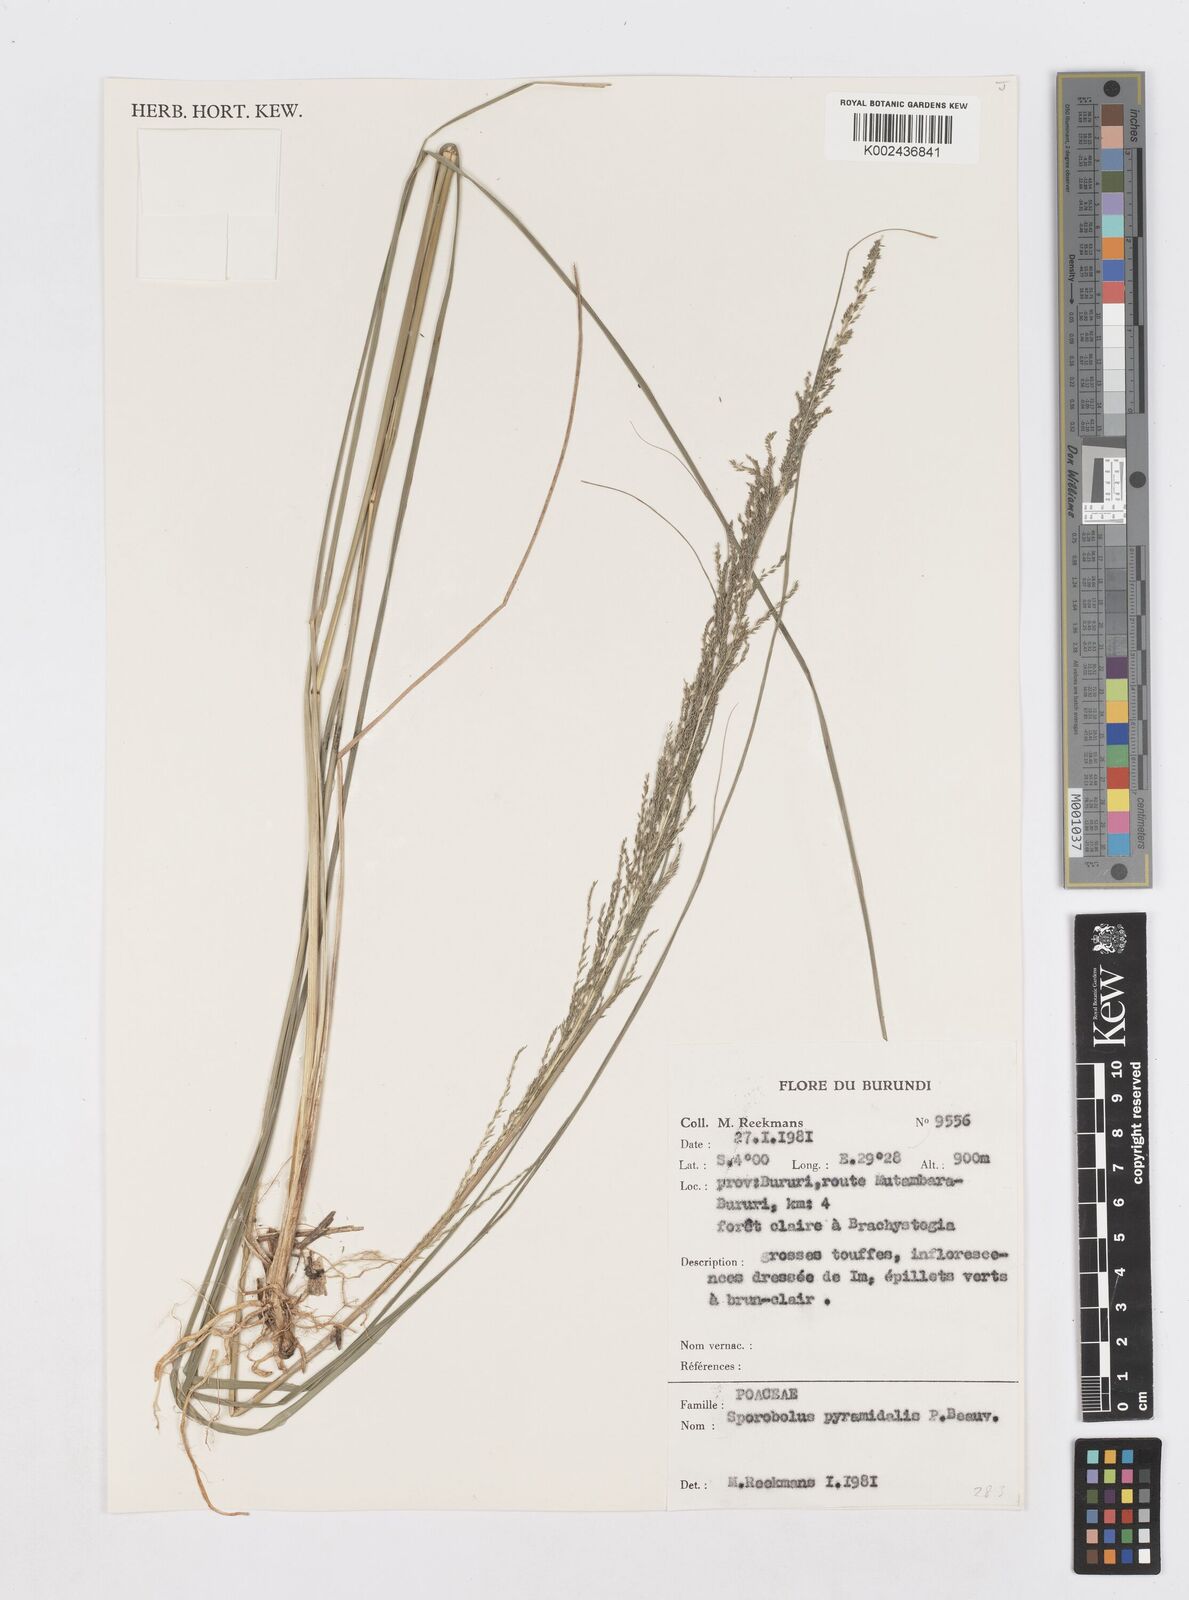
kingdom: Plantae
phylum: Tracheophyta
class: Liliopsida
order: Poales
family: Poaceae
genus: Sporobolus
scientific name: Sporobolus pyramidalis
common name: West indian dropseed
